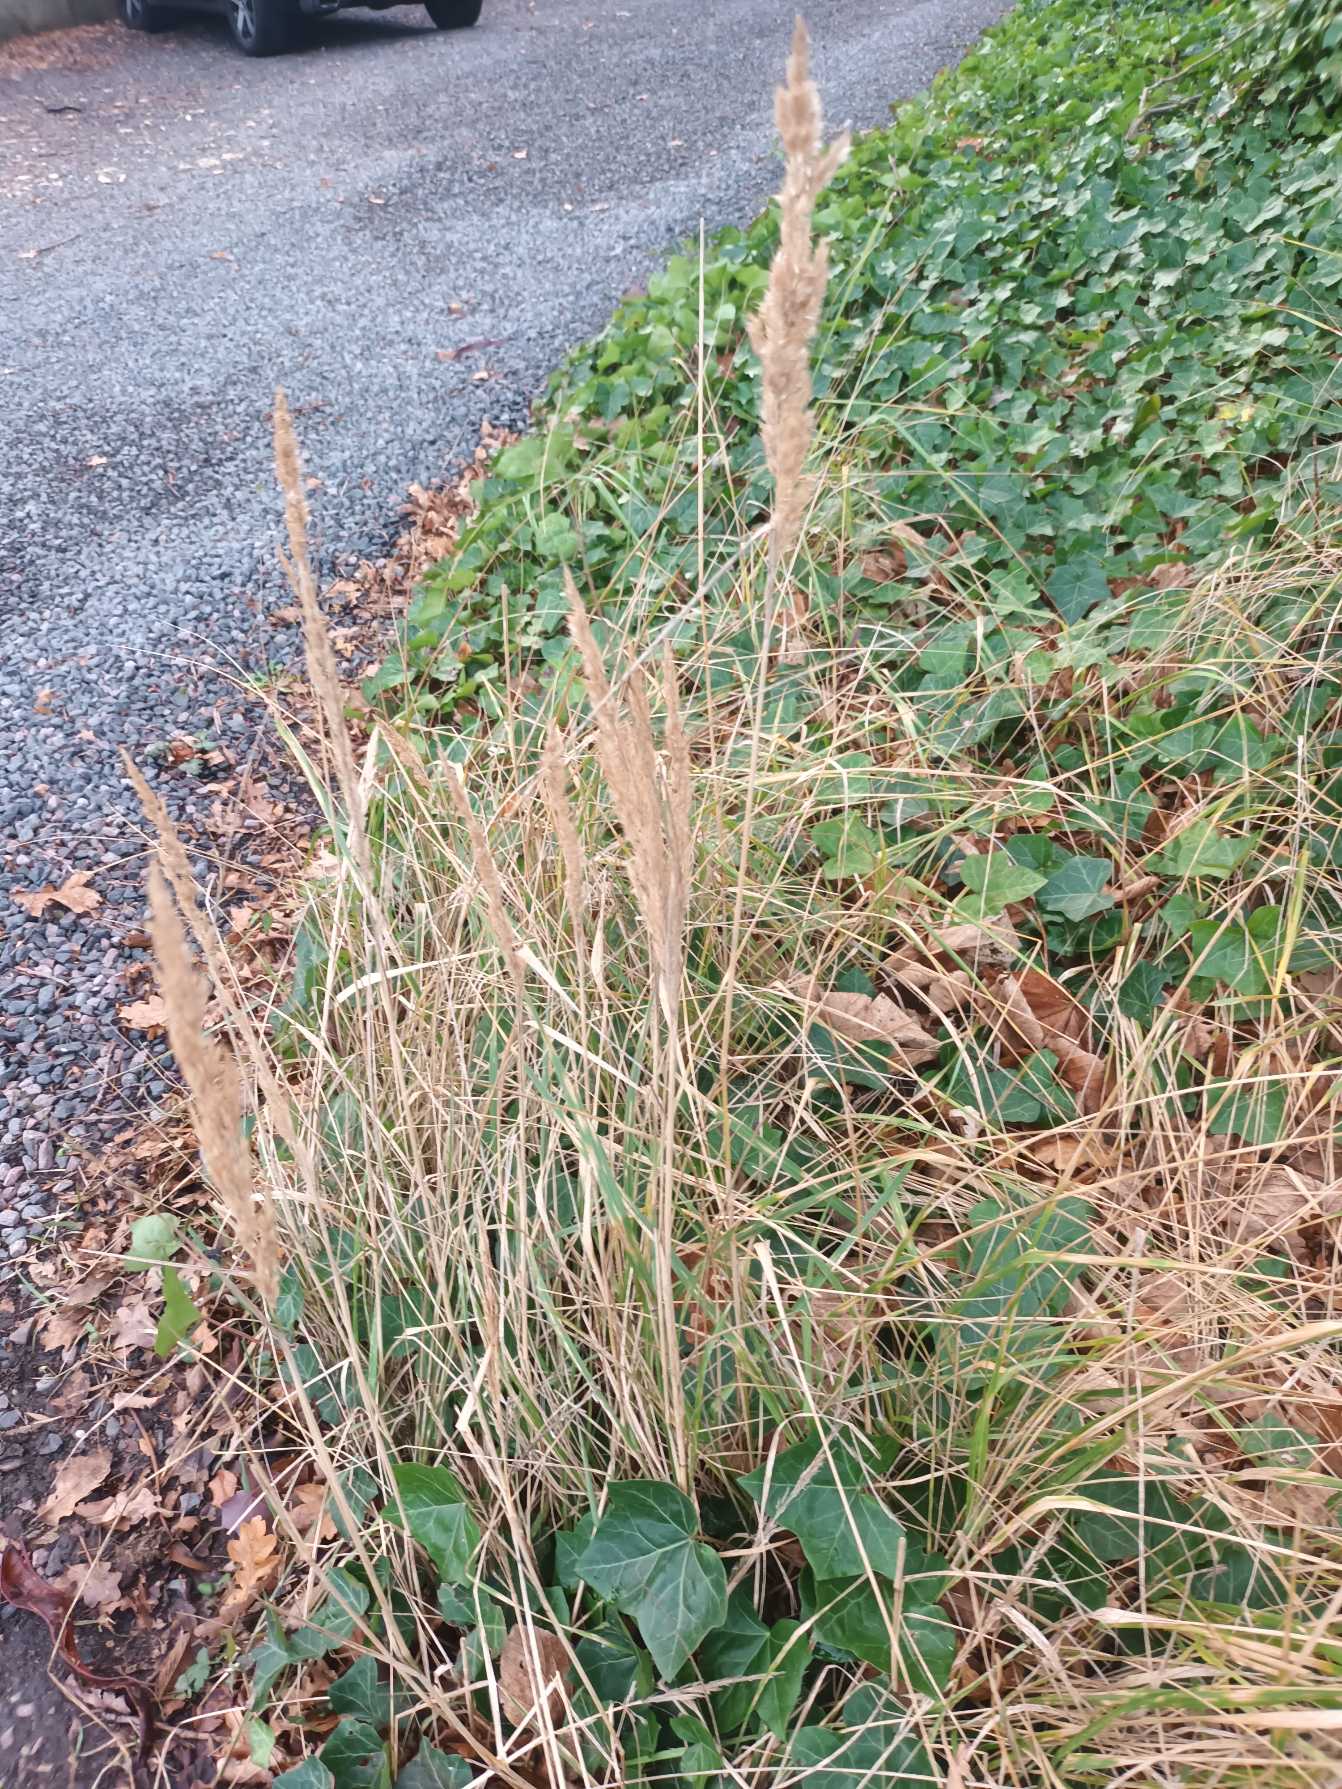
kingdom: Plantae
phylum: Tracheophyta
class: Liliopsida
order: Poales
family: Poaceae
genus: Calamagrostis
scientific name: Calamagrostis epigejos
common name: Bjerg-rørhvene
